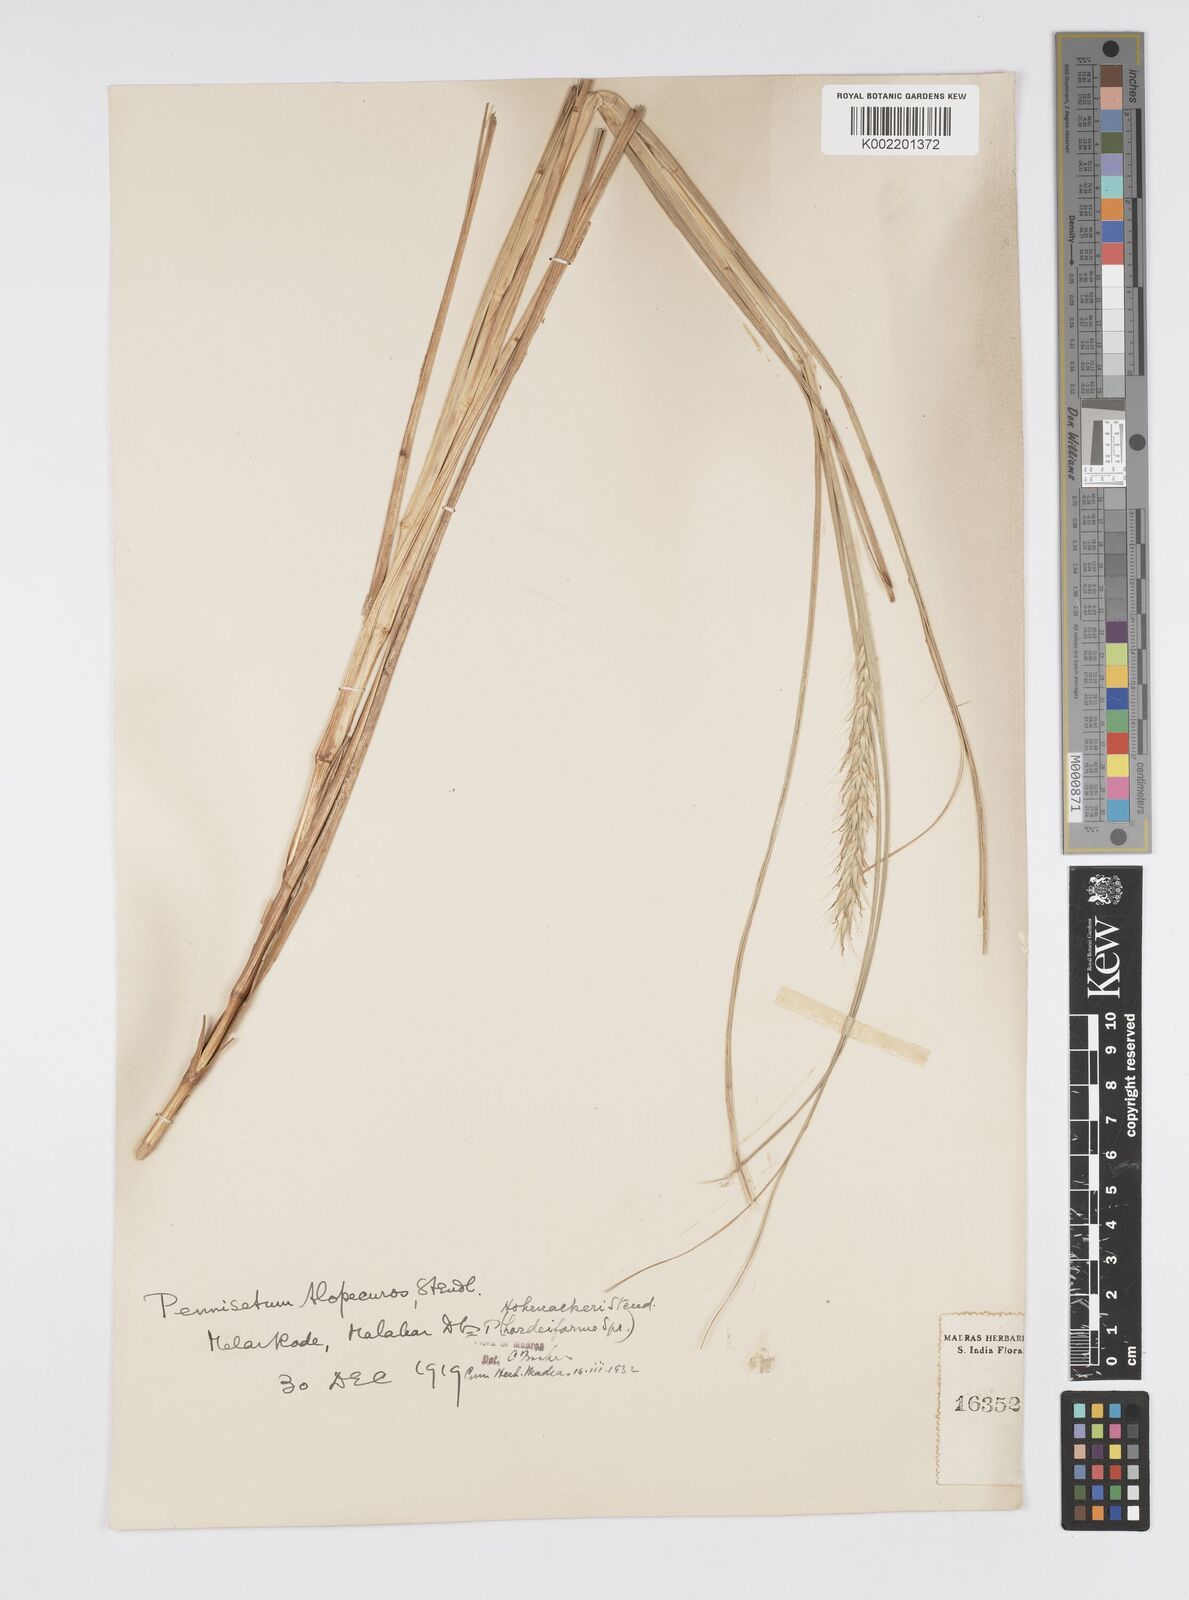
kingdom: Plantae
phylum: Tracheophyta
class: Liliopsida
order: Poales
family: Poaceae
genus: Cenchrus
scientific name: Cenchrus hohenackeri
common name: Moya grass
